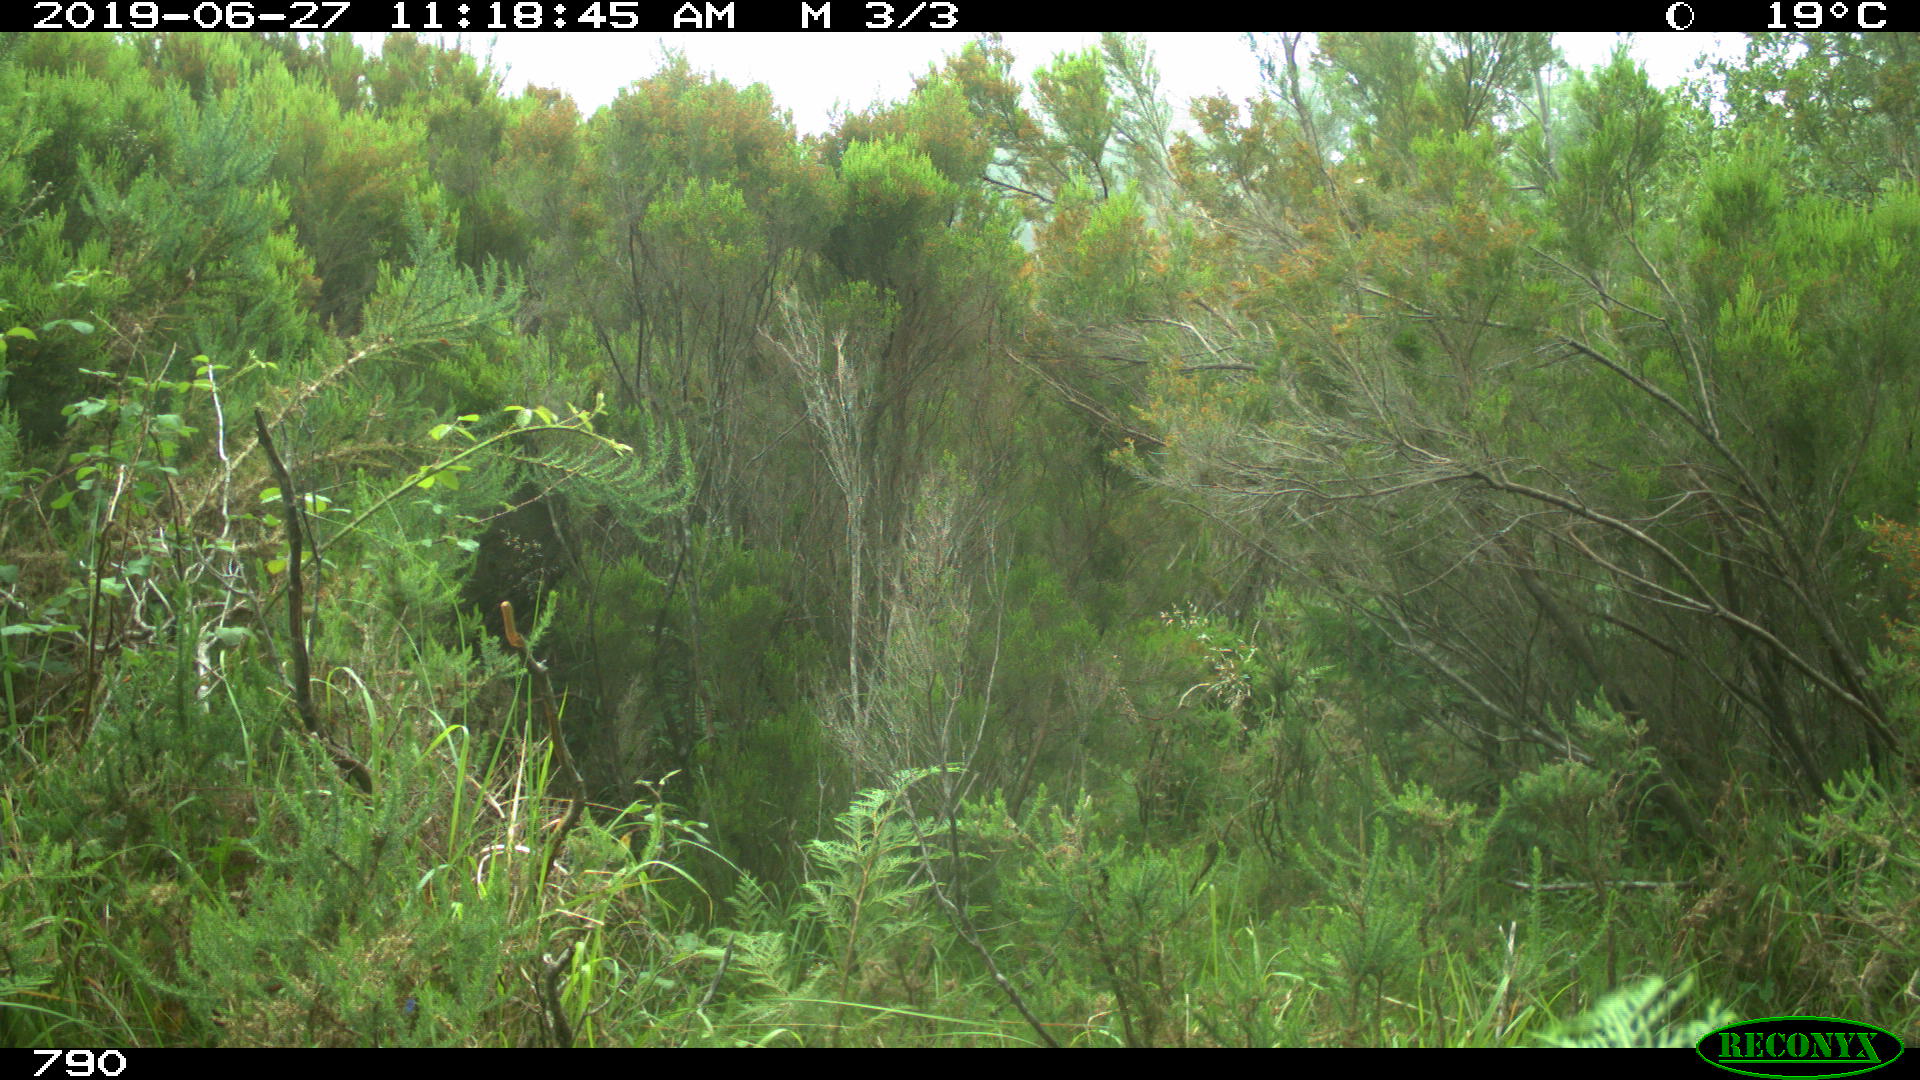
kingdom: Animalia
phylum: Chordata
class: Mammalia
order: Carnivora
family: Canidae
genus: Canis
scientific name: Canis lupus
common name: Gray wolf
